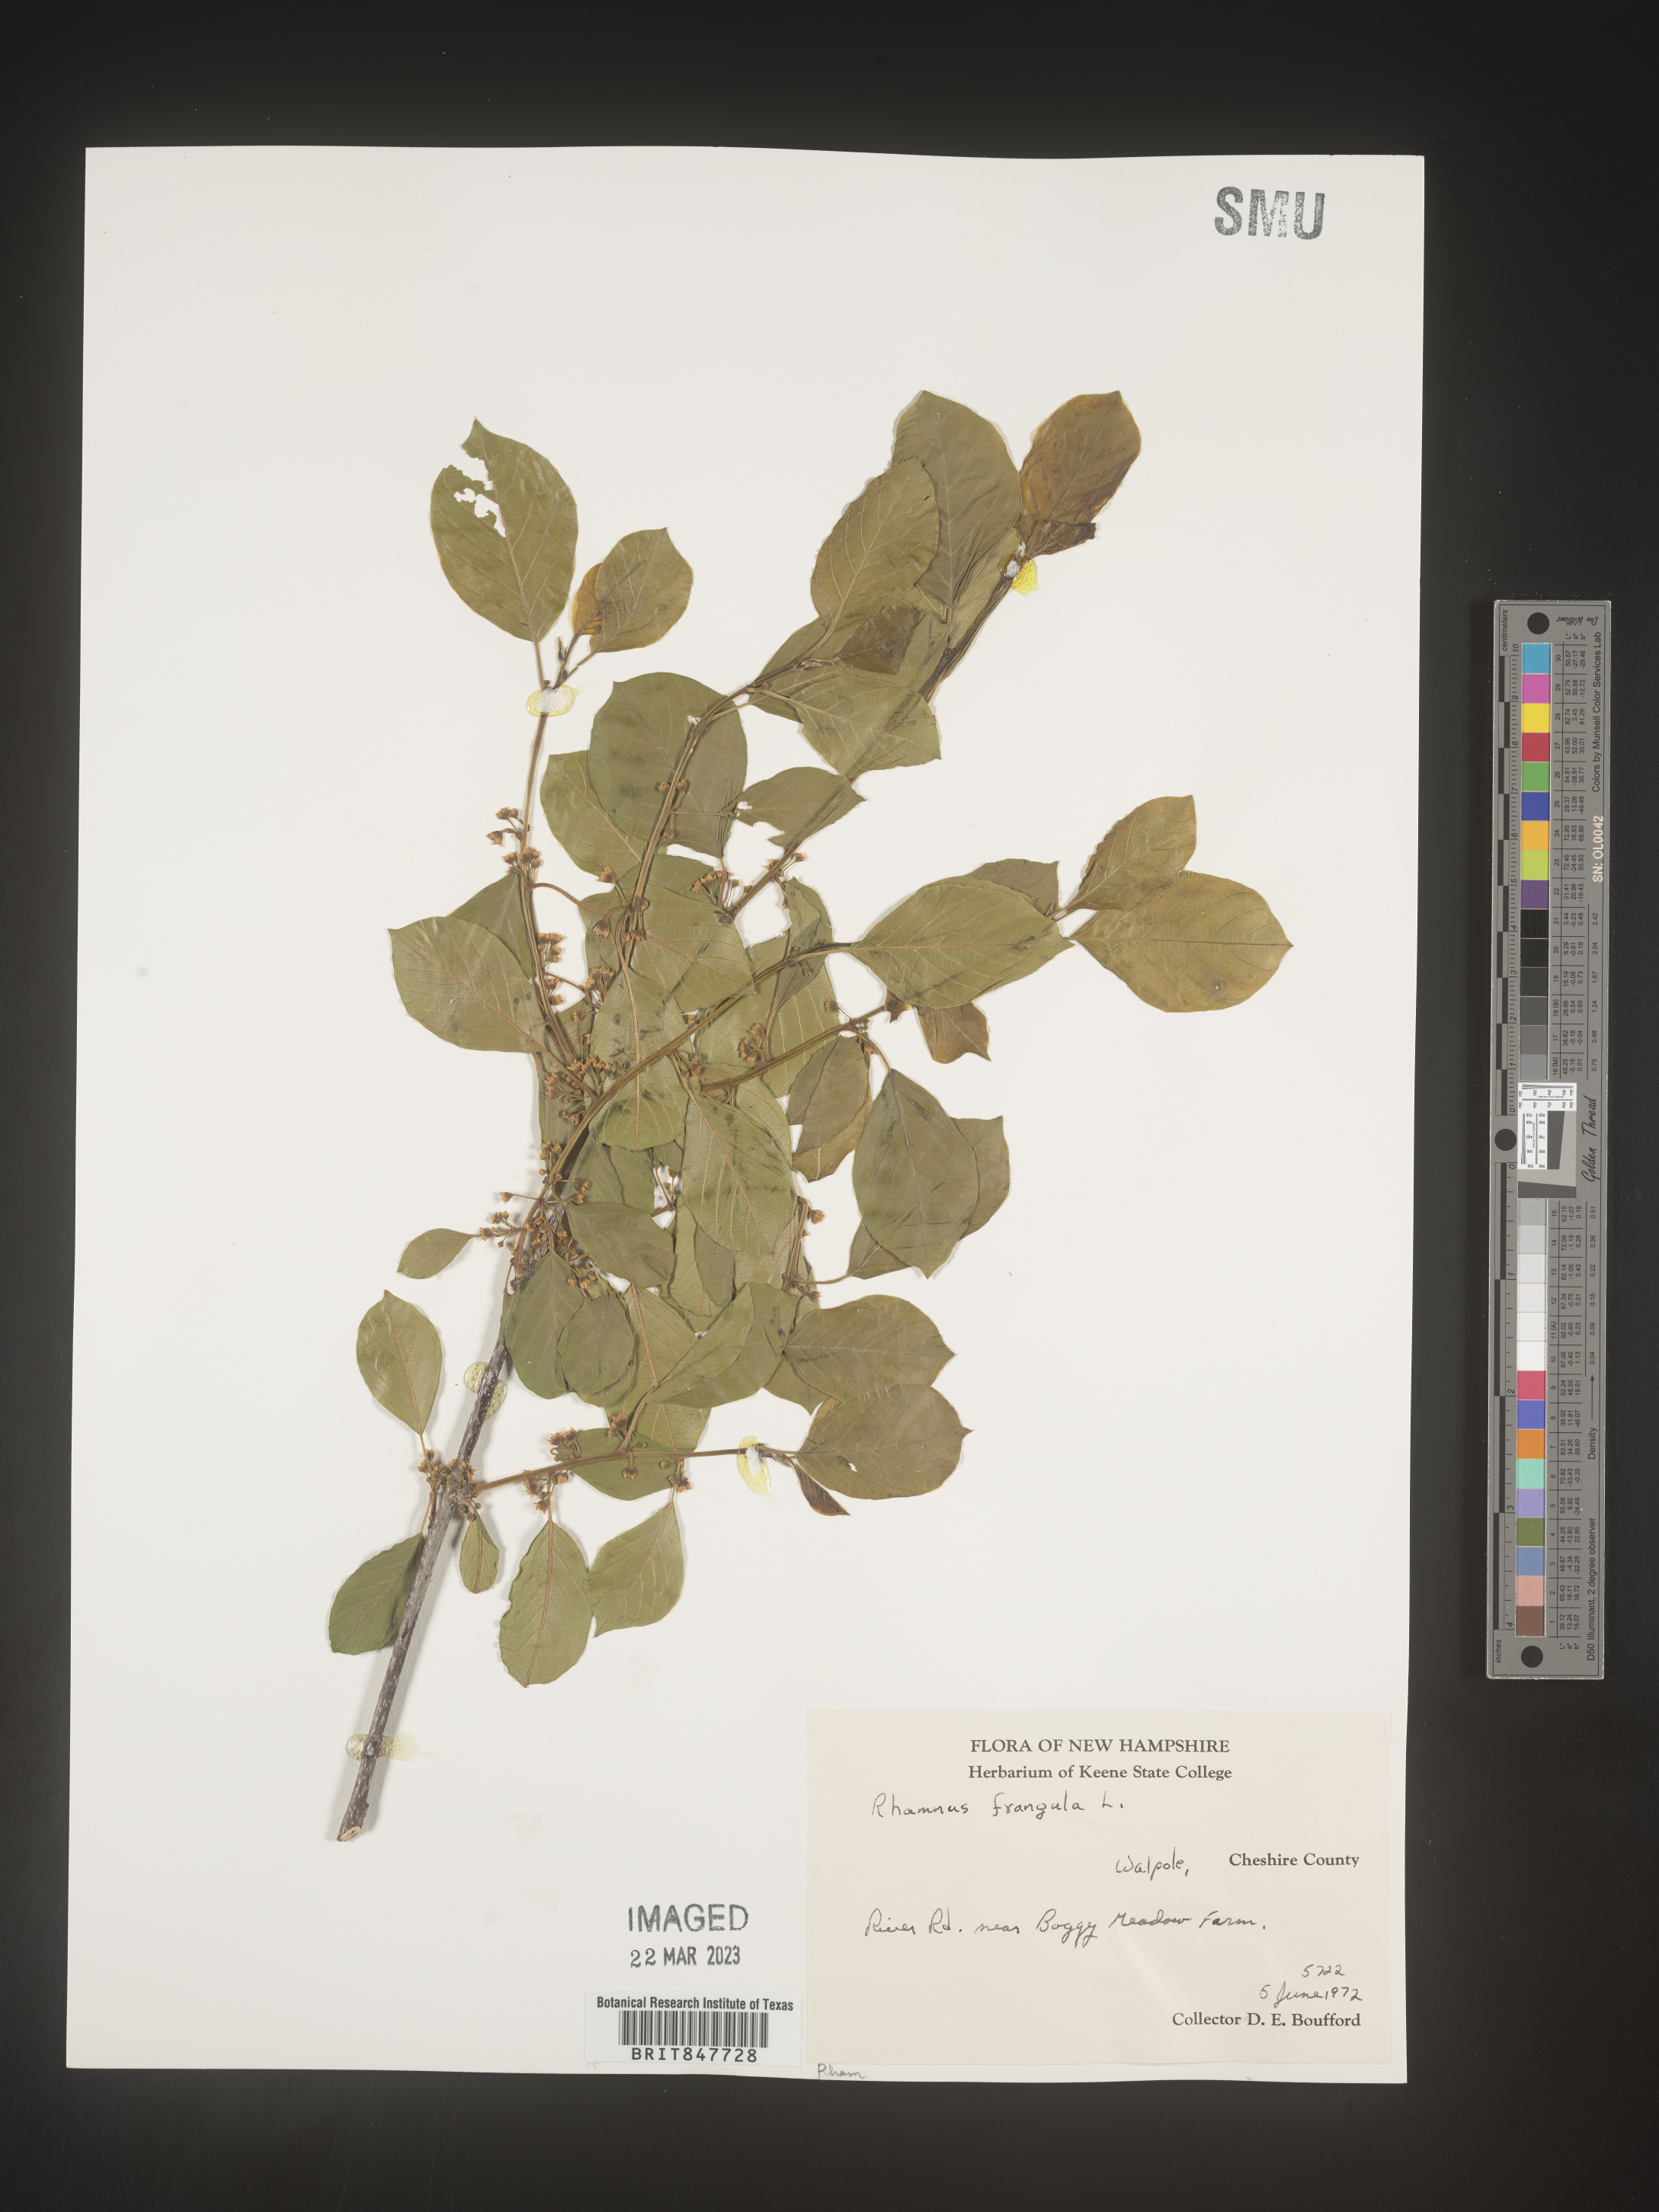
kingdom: Plantae
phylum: Tracheophyta
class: Magnoliopsida
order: Rosales
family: Rhamnaceae
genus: Frangula
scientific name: Frangula alnus
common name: Alder buckthorn
